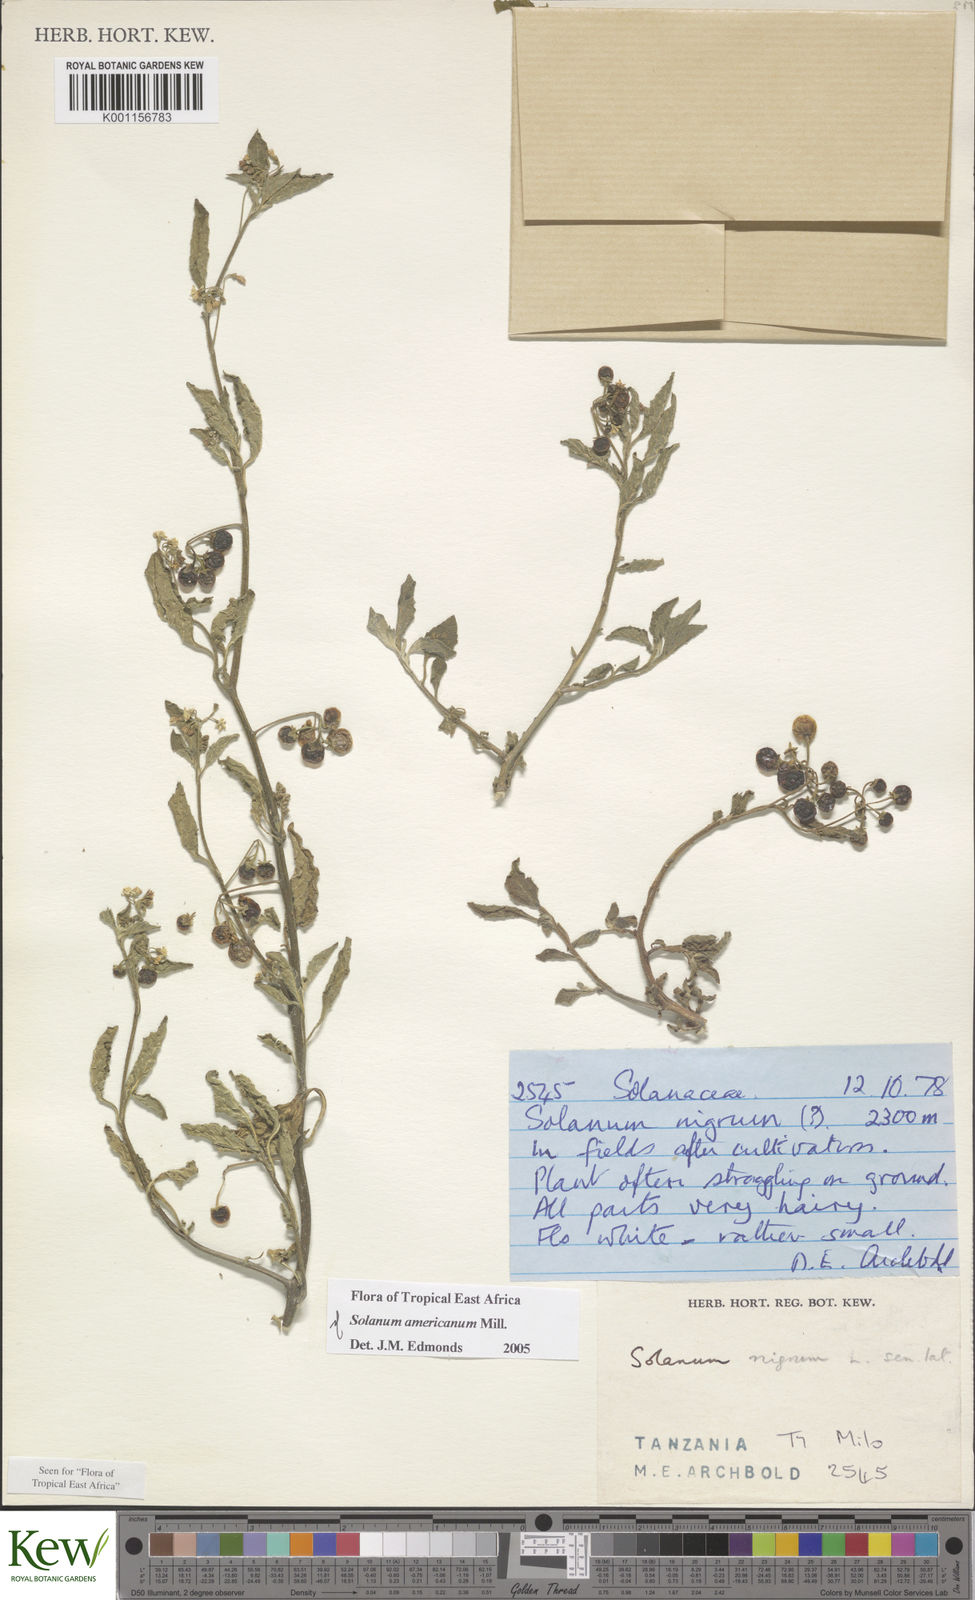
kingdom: Plantae
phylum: Tracheophyta
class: Magnoliopsida
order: Solanales
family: Solanaceae
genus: Solanum
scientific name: Solanum americanum
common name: American black nightshade
